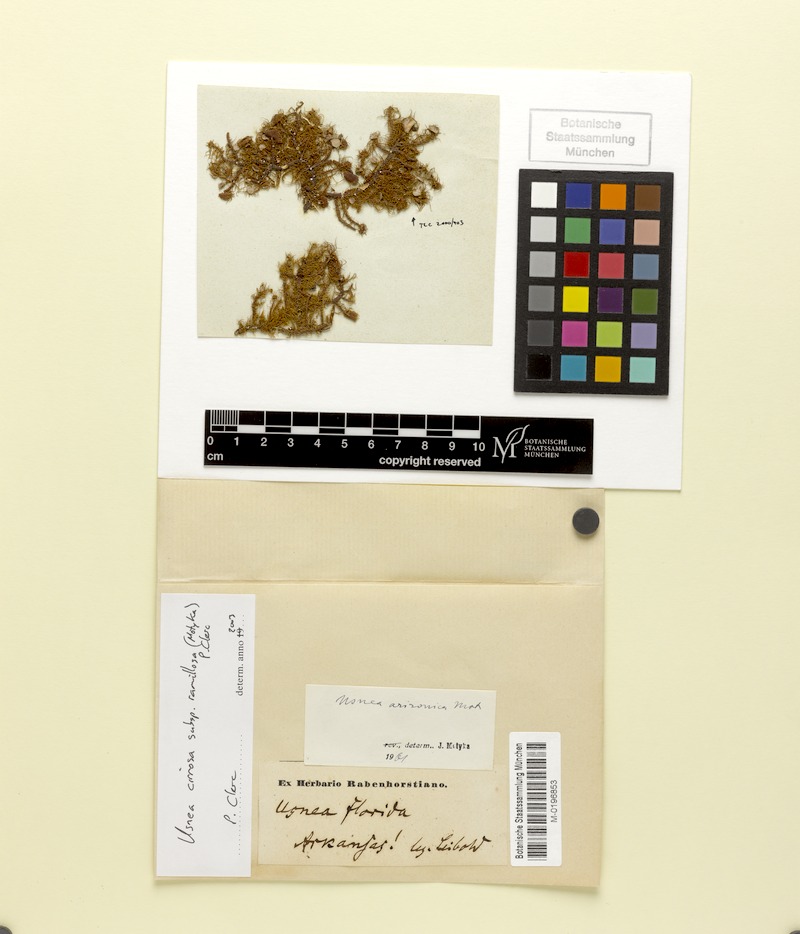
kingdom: Fungi
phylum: Ascomycota
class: Lecanoromycetes
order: Lecanorales
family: Parmeliaceae
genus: Usnea
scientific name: Usnea cirrosa
